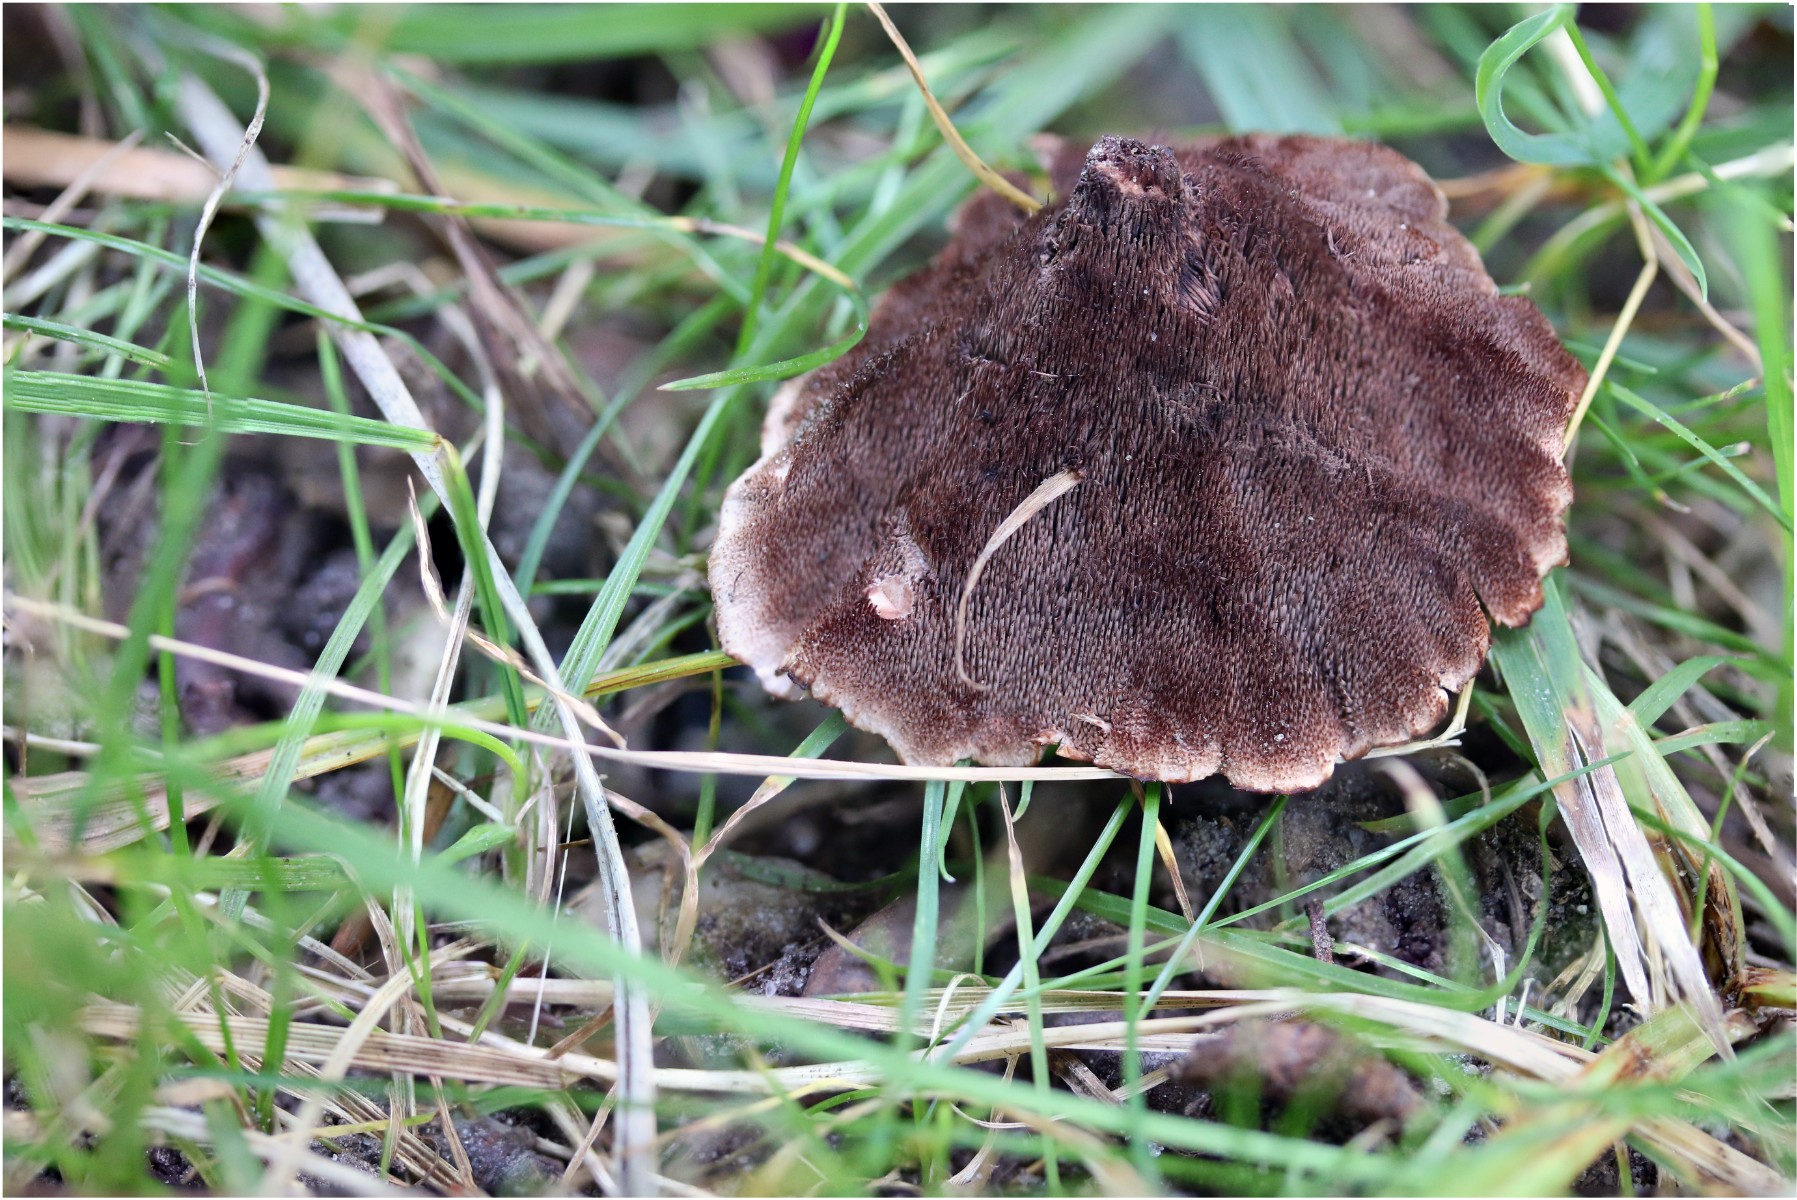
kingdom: Fungi
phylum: Basidiomycota
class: Agaricomycetes
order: Thelephorales
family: Bankeraceae
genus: Hydnellum
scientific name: Hydnellum concrescens
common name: bæltet korkpigsvamp
